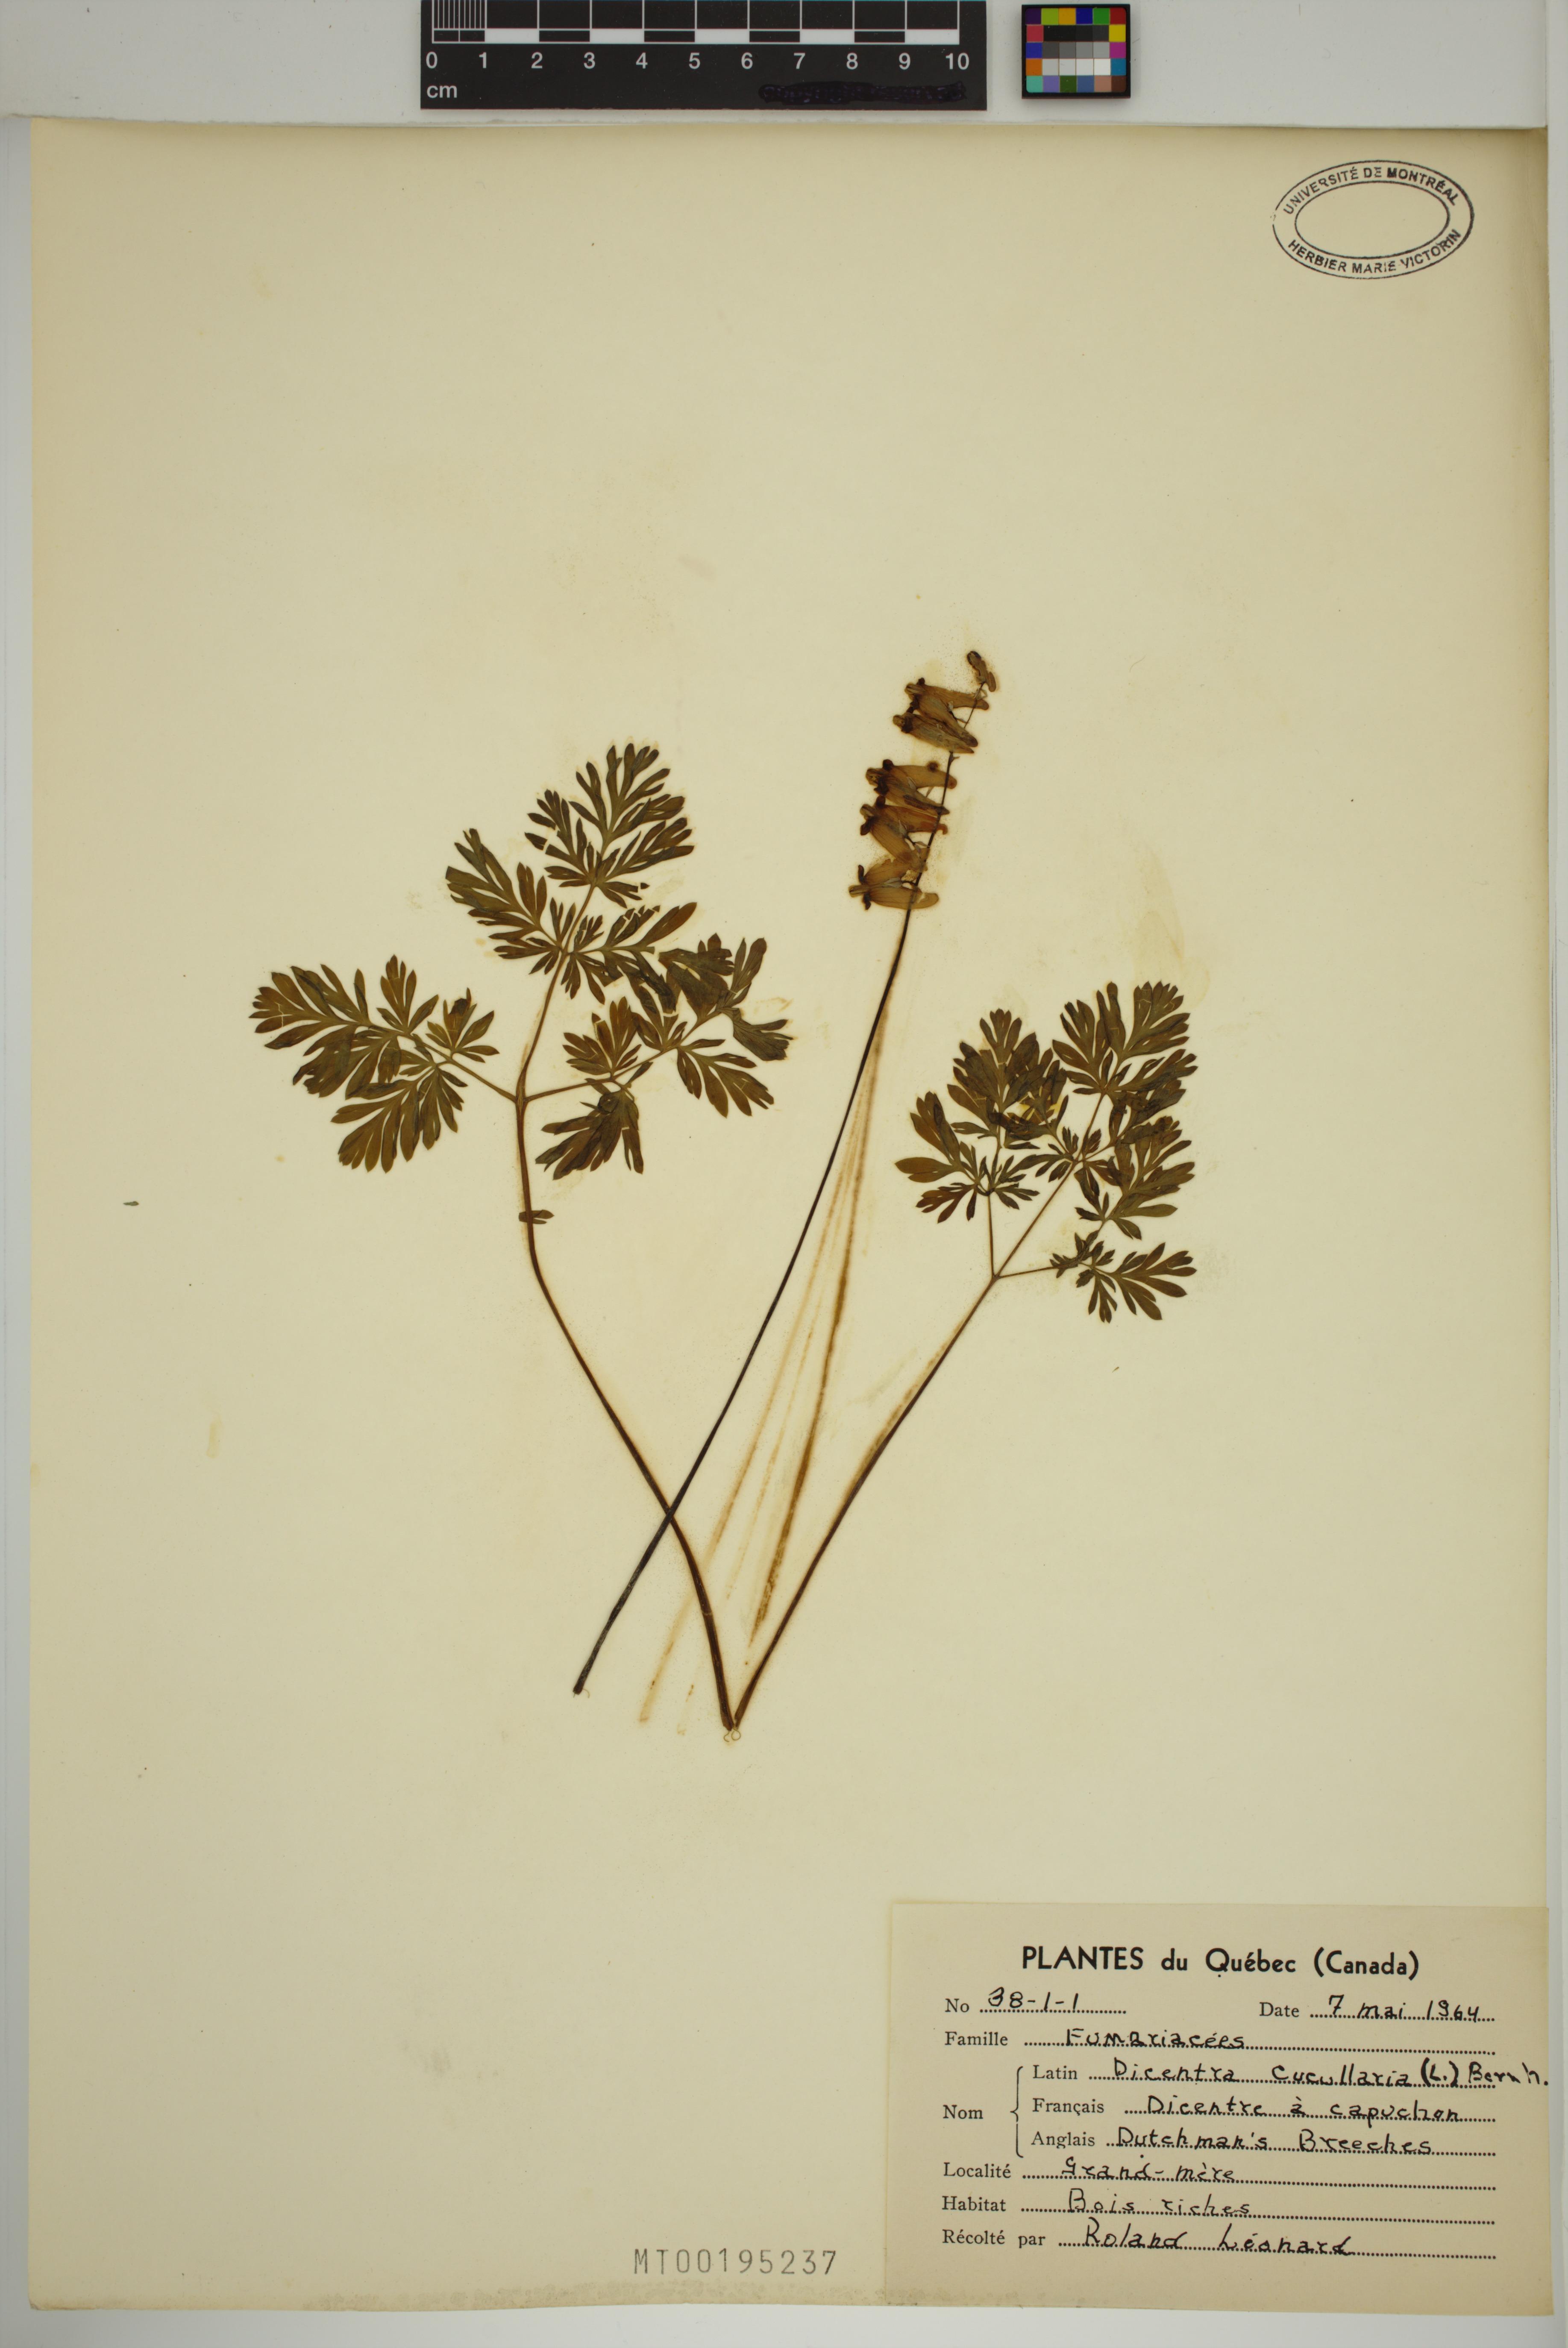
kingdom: Plantae
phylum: Tracheophyta
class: Magnoliopsida
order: Ranunculales
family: Papaveraceae
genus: Dicentra
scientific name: Dicentra cucullaria
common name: Dutchman's breeches
